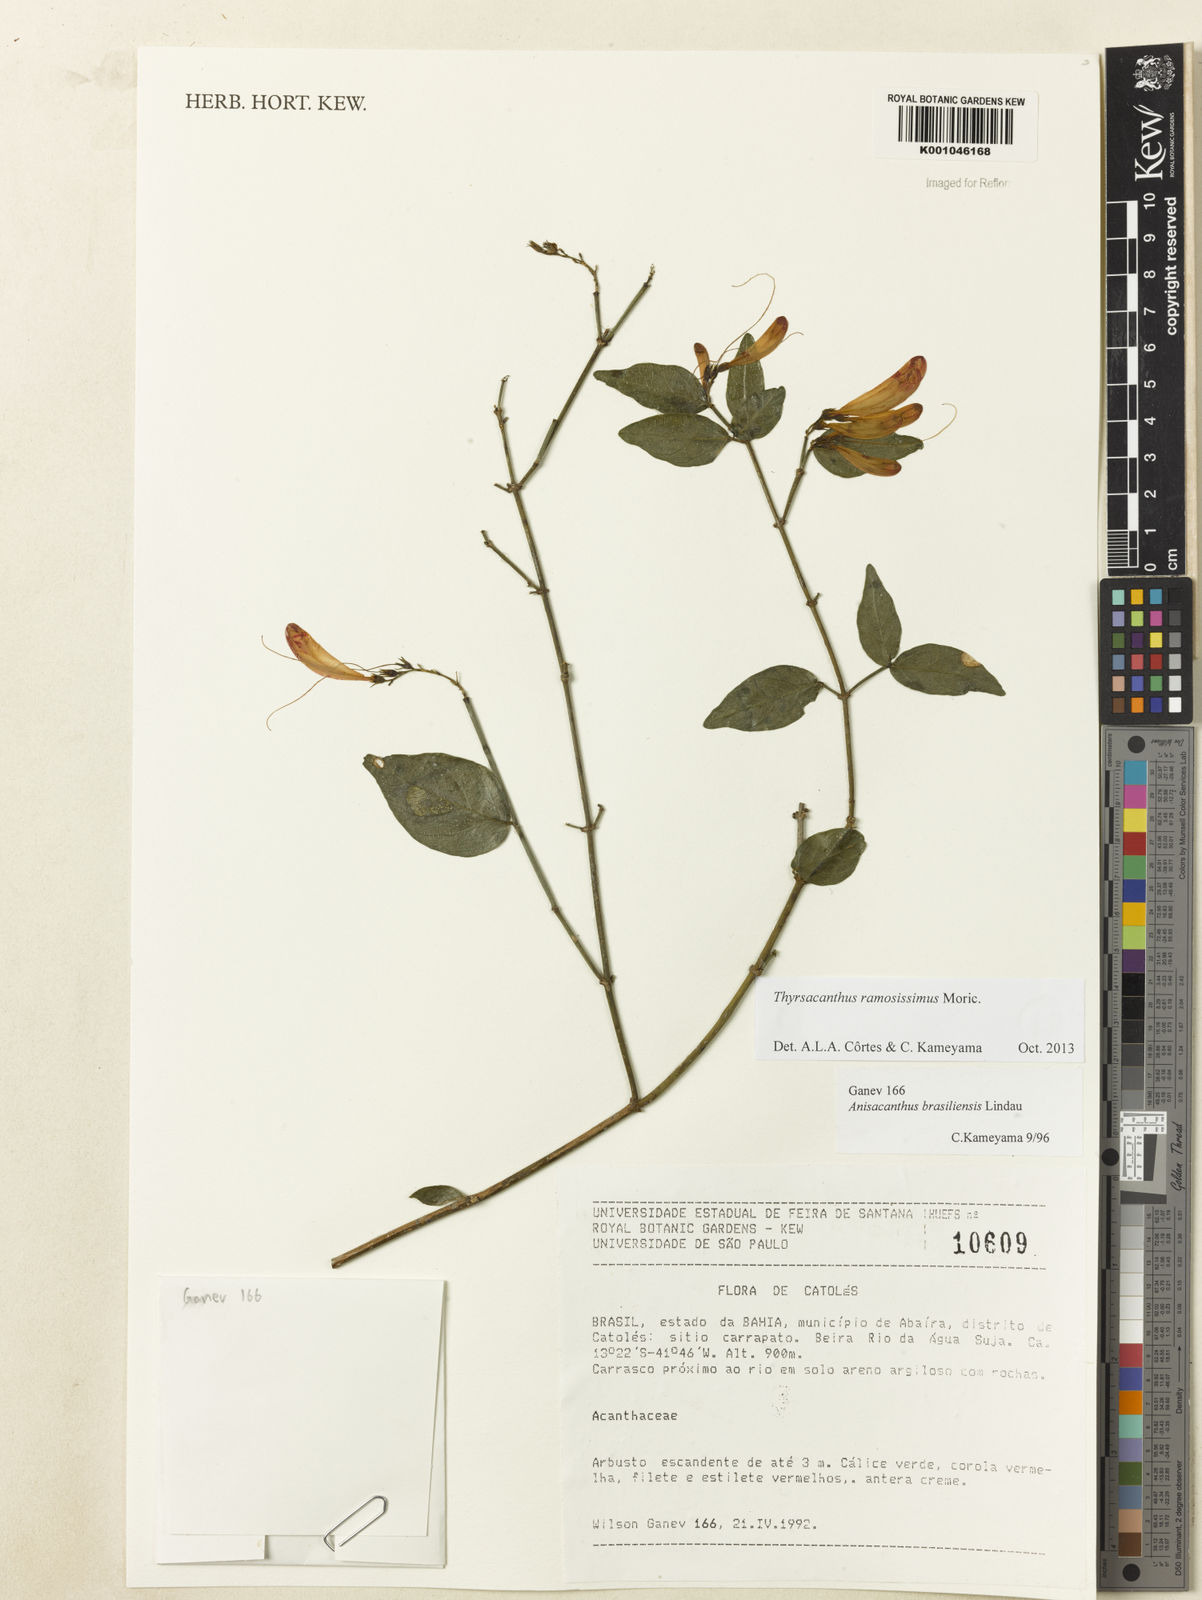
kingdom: Plantae
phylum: Tracheophyta
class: Magnoliopsida
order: Lamiales
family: Acanthaceae
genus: Thyrsacanthus
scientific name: Thyrsacanthus ramosissimus
